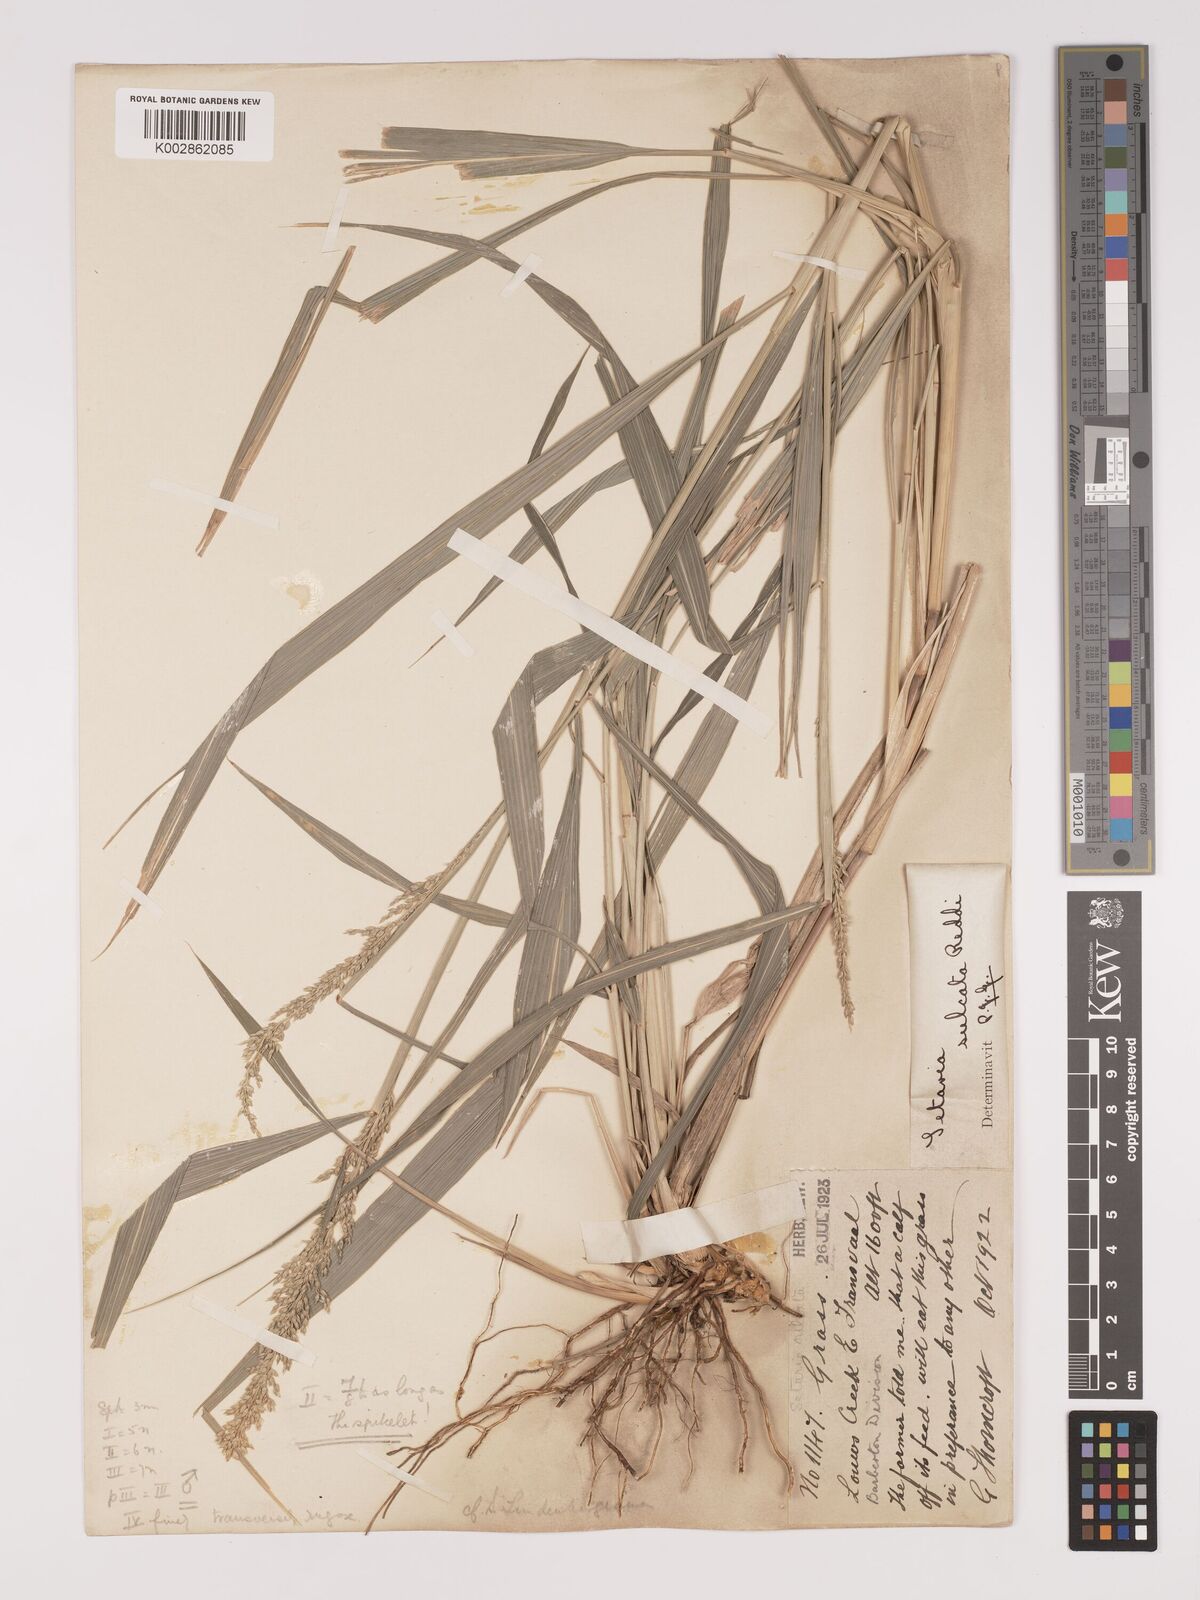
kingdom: Plantae
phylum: Tracheophyta
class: Liliopsida
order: Poales
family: Poaceae
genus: Setaria
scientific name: Setaria lindenbergiana
